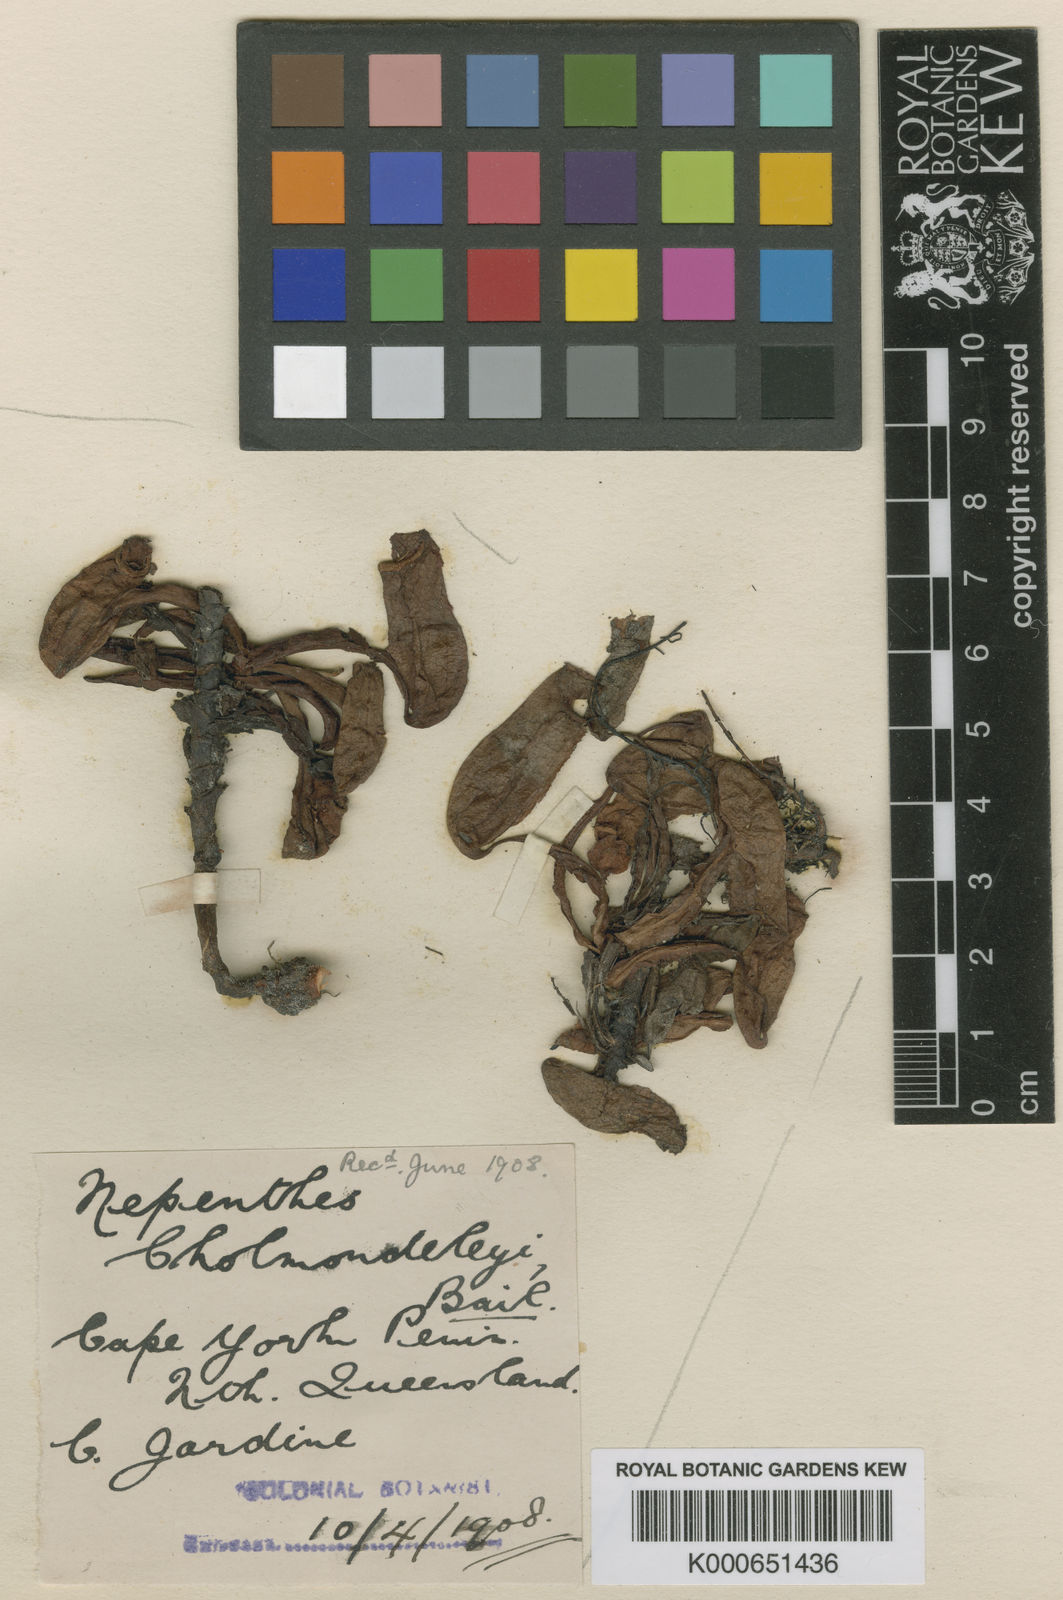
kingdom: Plantae
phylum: Tracheophyta
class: Magnoliopsida
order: Caryophyllales
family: Nepenthaceae
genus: Nepenthes
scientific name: Nepenthes mirabilis
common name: Tropical pitcherplant
